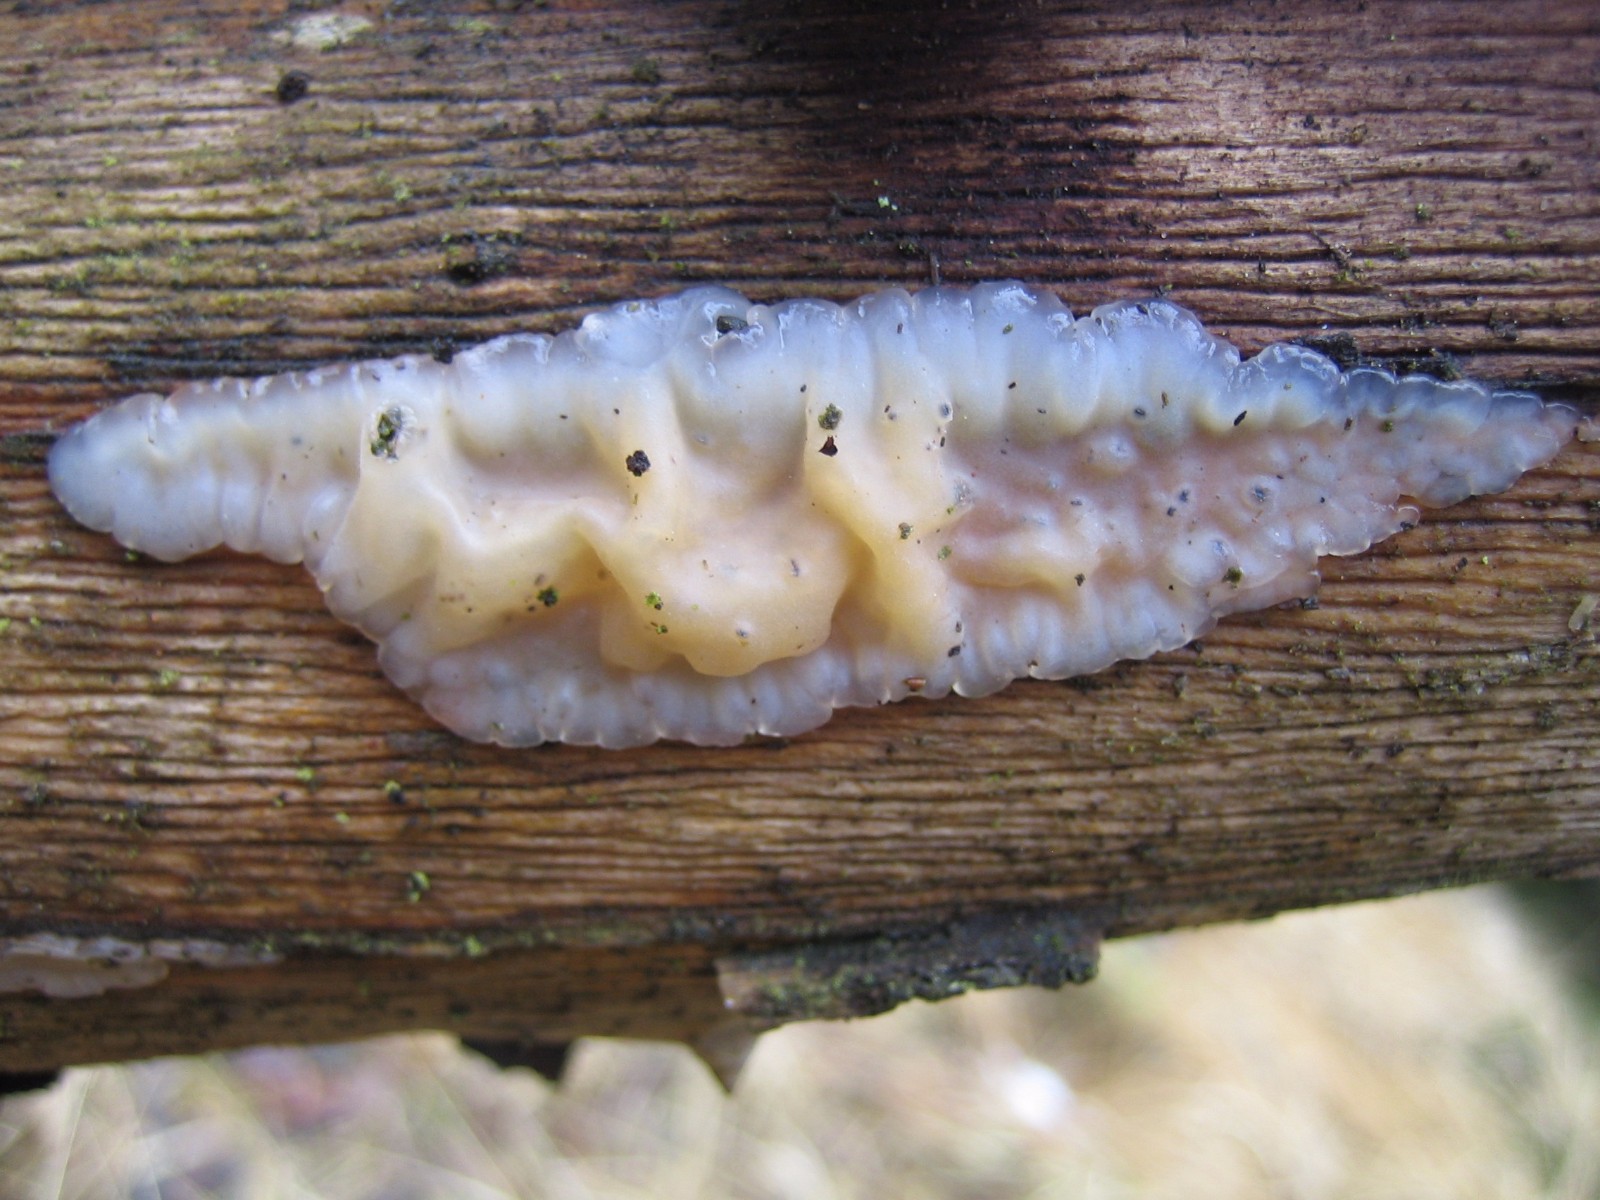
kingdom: Fungi
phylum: Basidiomycota
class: Agaricomycetes
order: Auriculariales
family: Auriculariaceae
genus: Exidia
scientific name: Exidia thuretiana
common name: hvidlig bævretop
